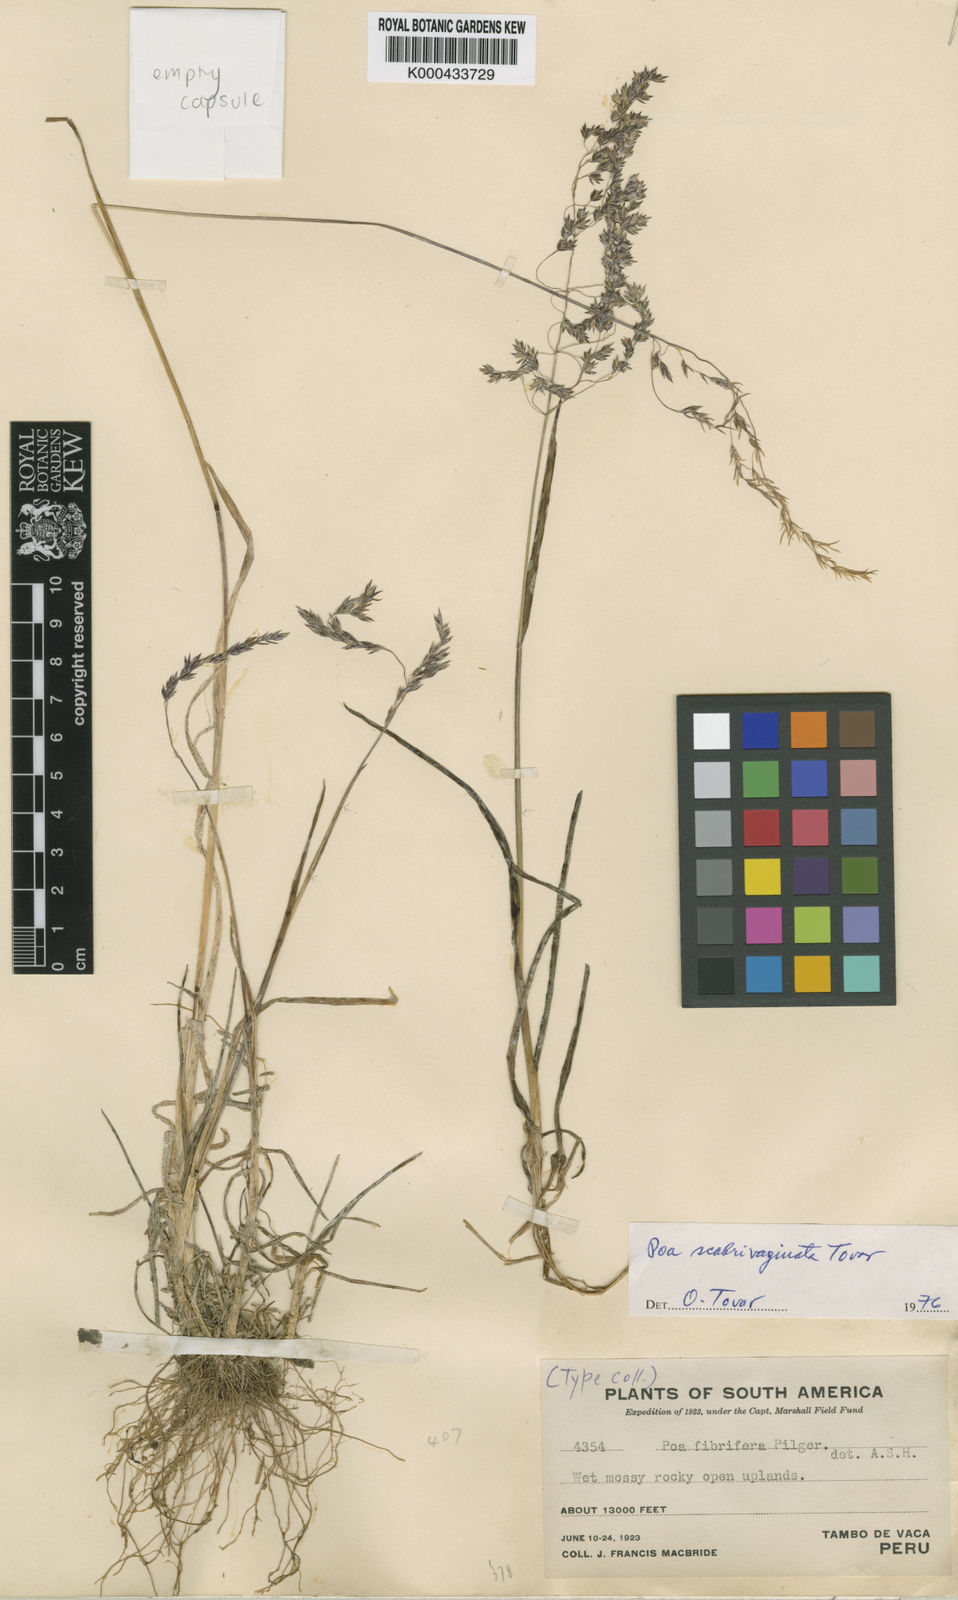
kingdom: Plantae
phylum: Tracheophyta
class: Liliopsida
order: Poales
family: Poaceae
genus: Poa
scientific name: Poa scabrivaginata
